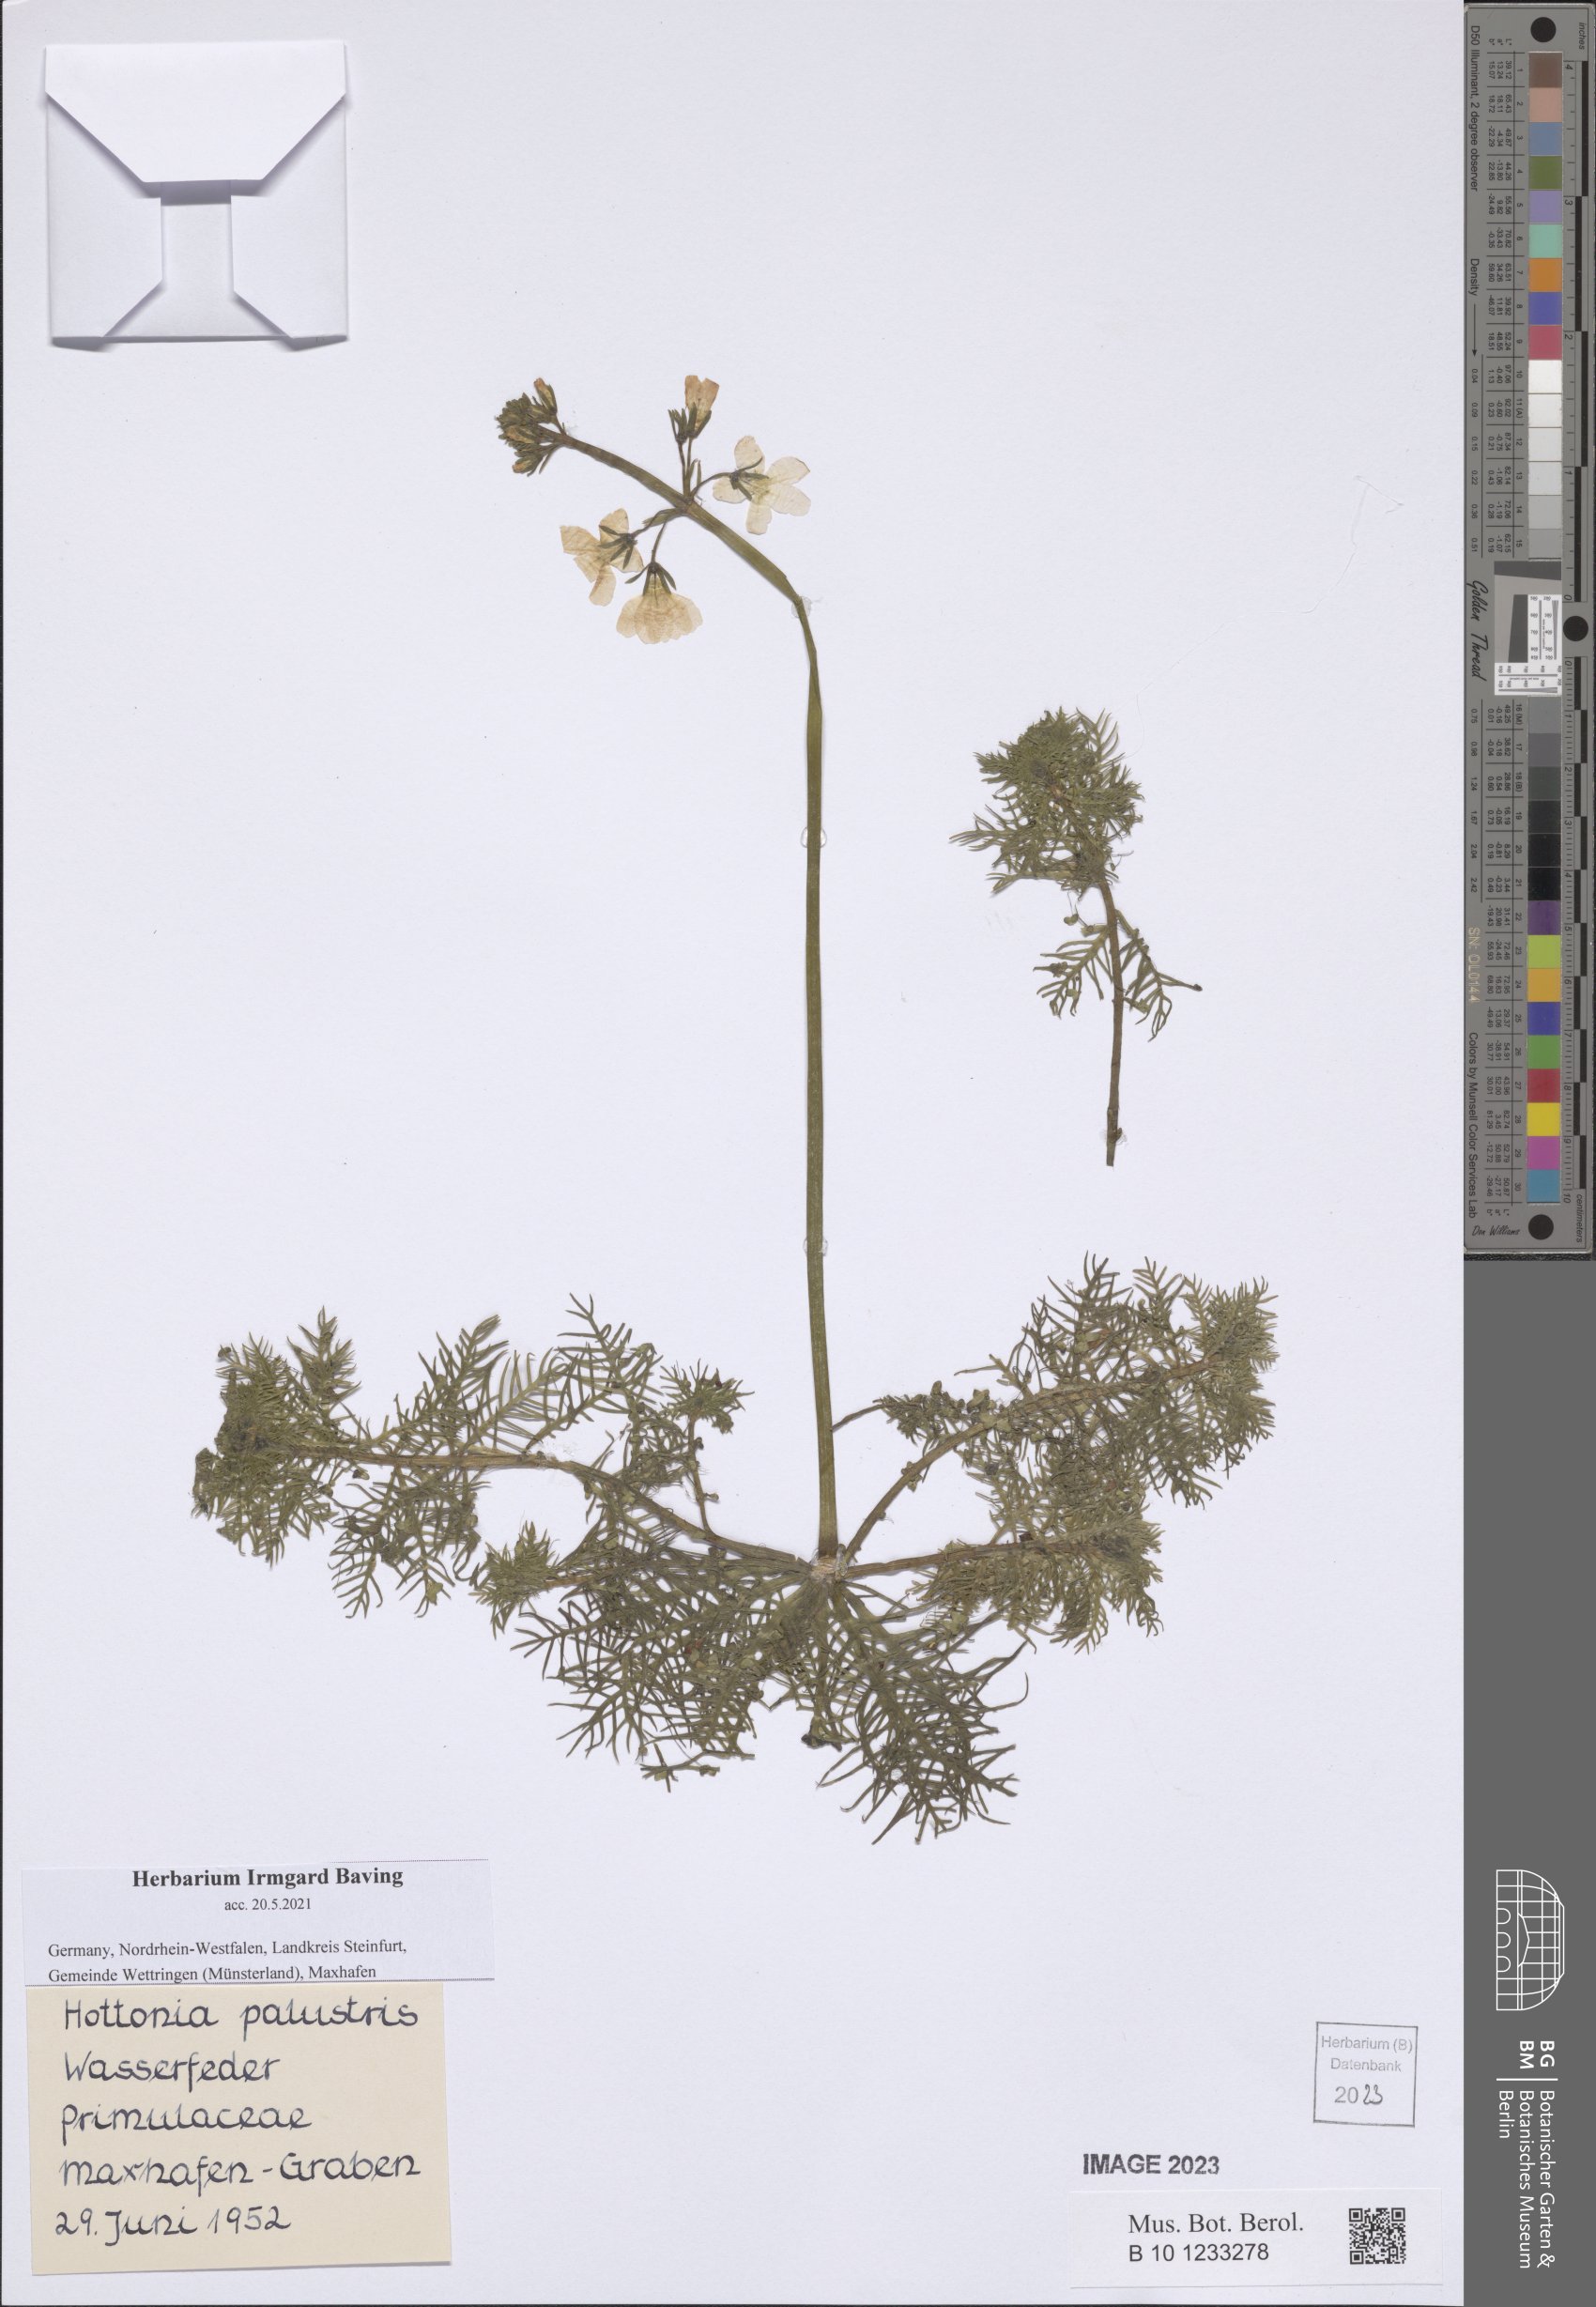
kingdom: Plantae
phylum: Tracheophyta
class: Magnoliopsida
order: Ericales
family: Primulaceae
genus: Hottonia
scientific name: Hottonia palustris
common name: Water-violet
